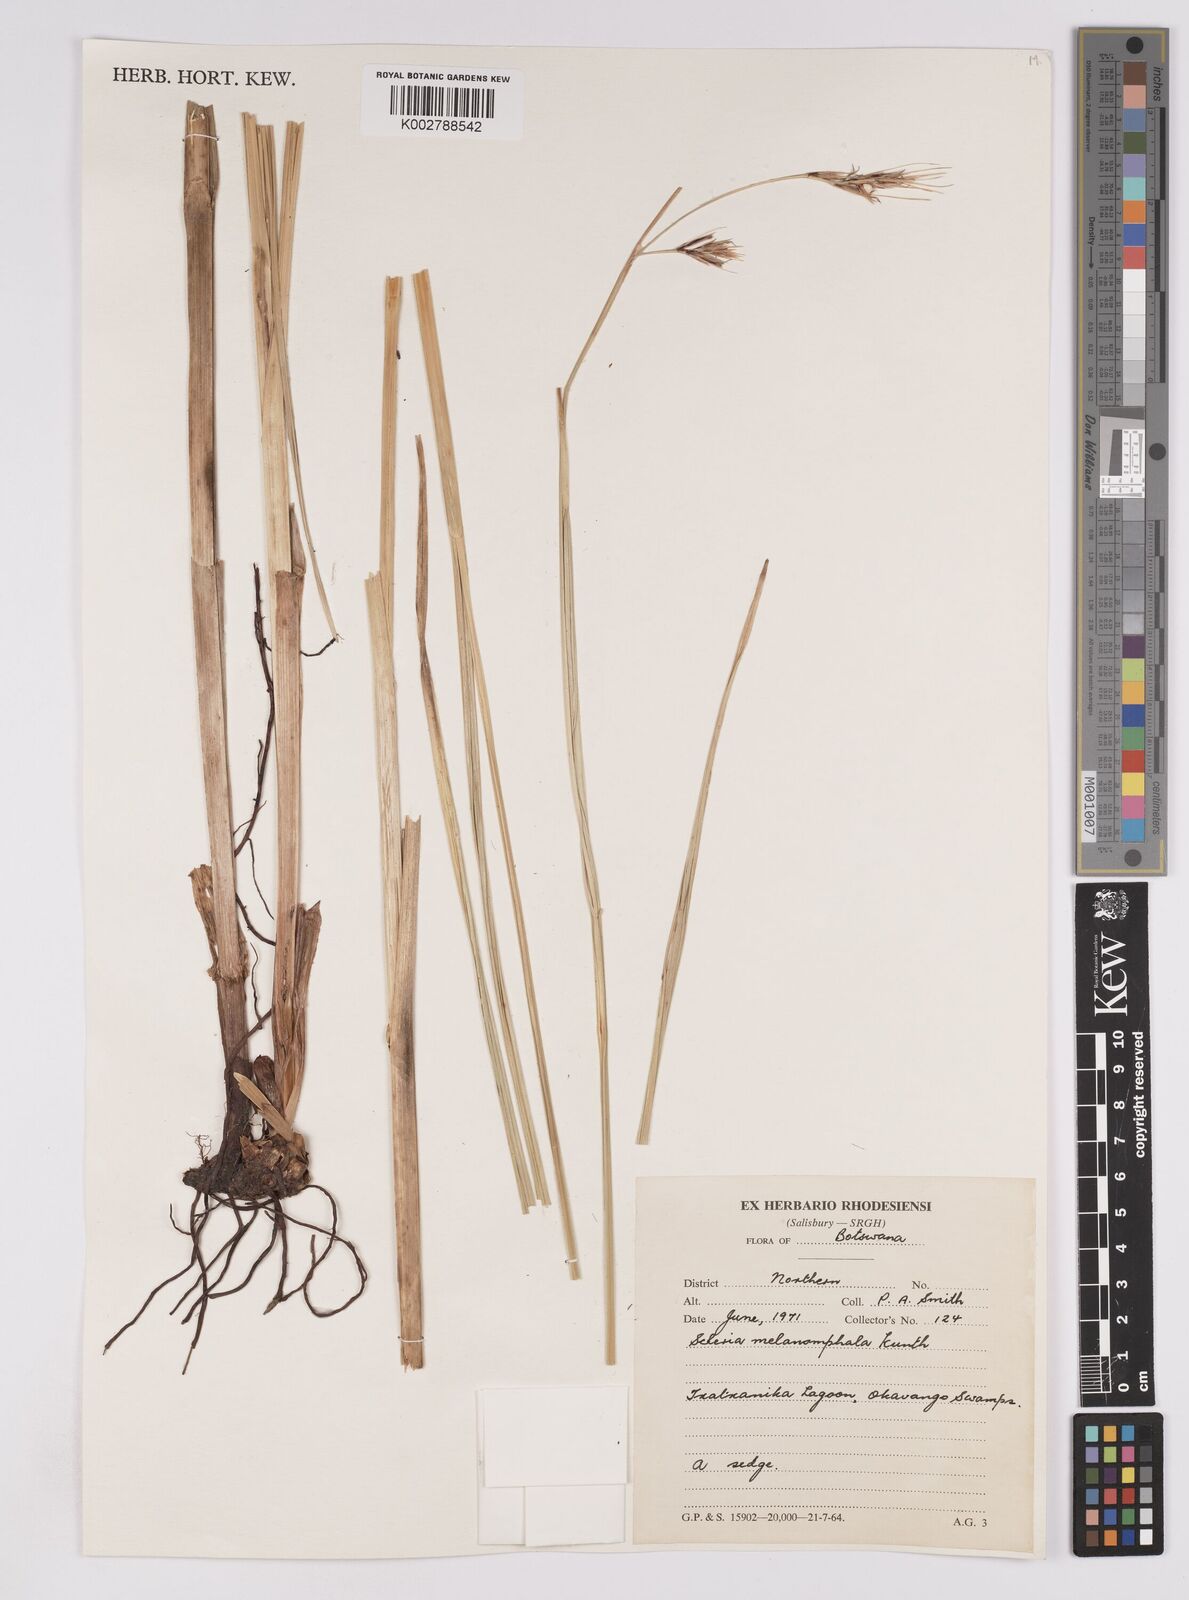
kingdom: Plantae
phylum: Tracheophyta
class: Liliopsida
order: Poales
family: Cyperaceae
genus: Scleria
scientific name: Scleria melanomphala
